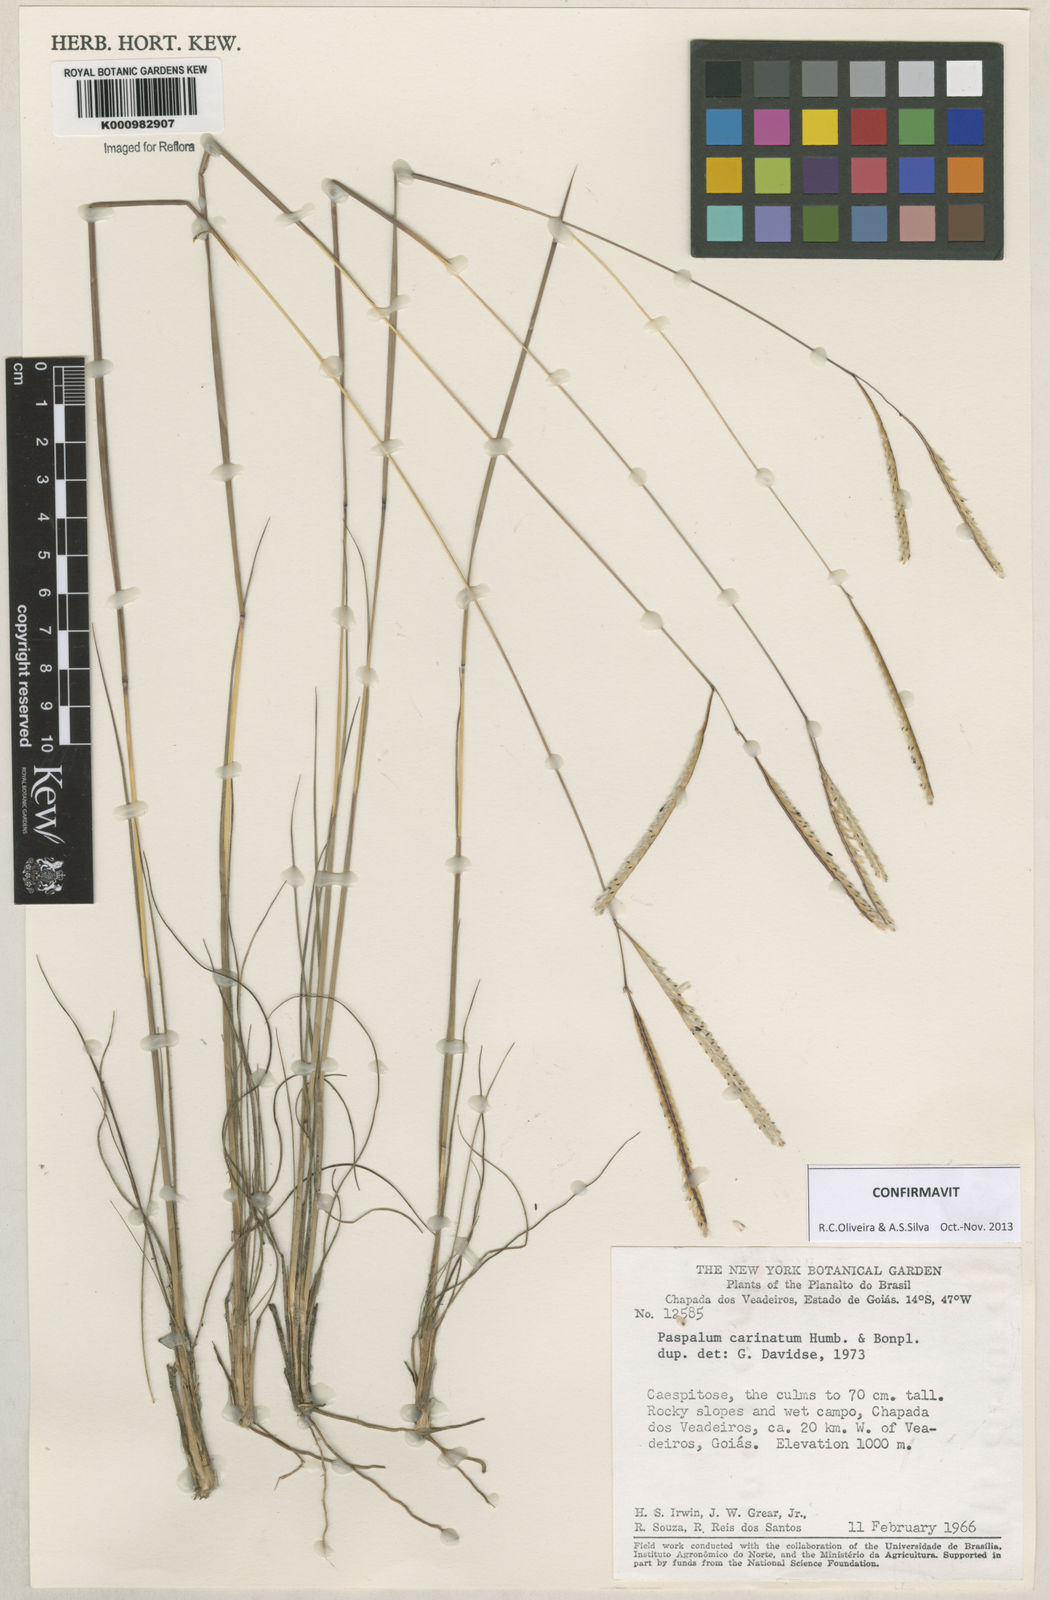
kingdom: Plantae
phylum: Tracheophyta
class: Liliopsida
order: Poales
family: Poaceae
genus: Paspalum
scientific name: Paspalum
